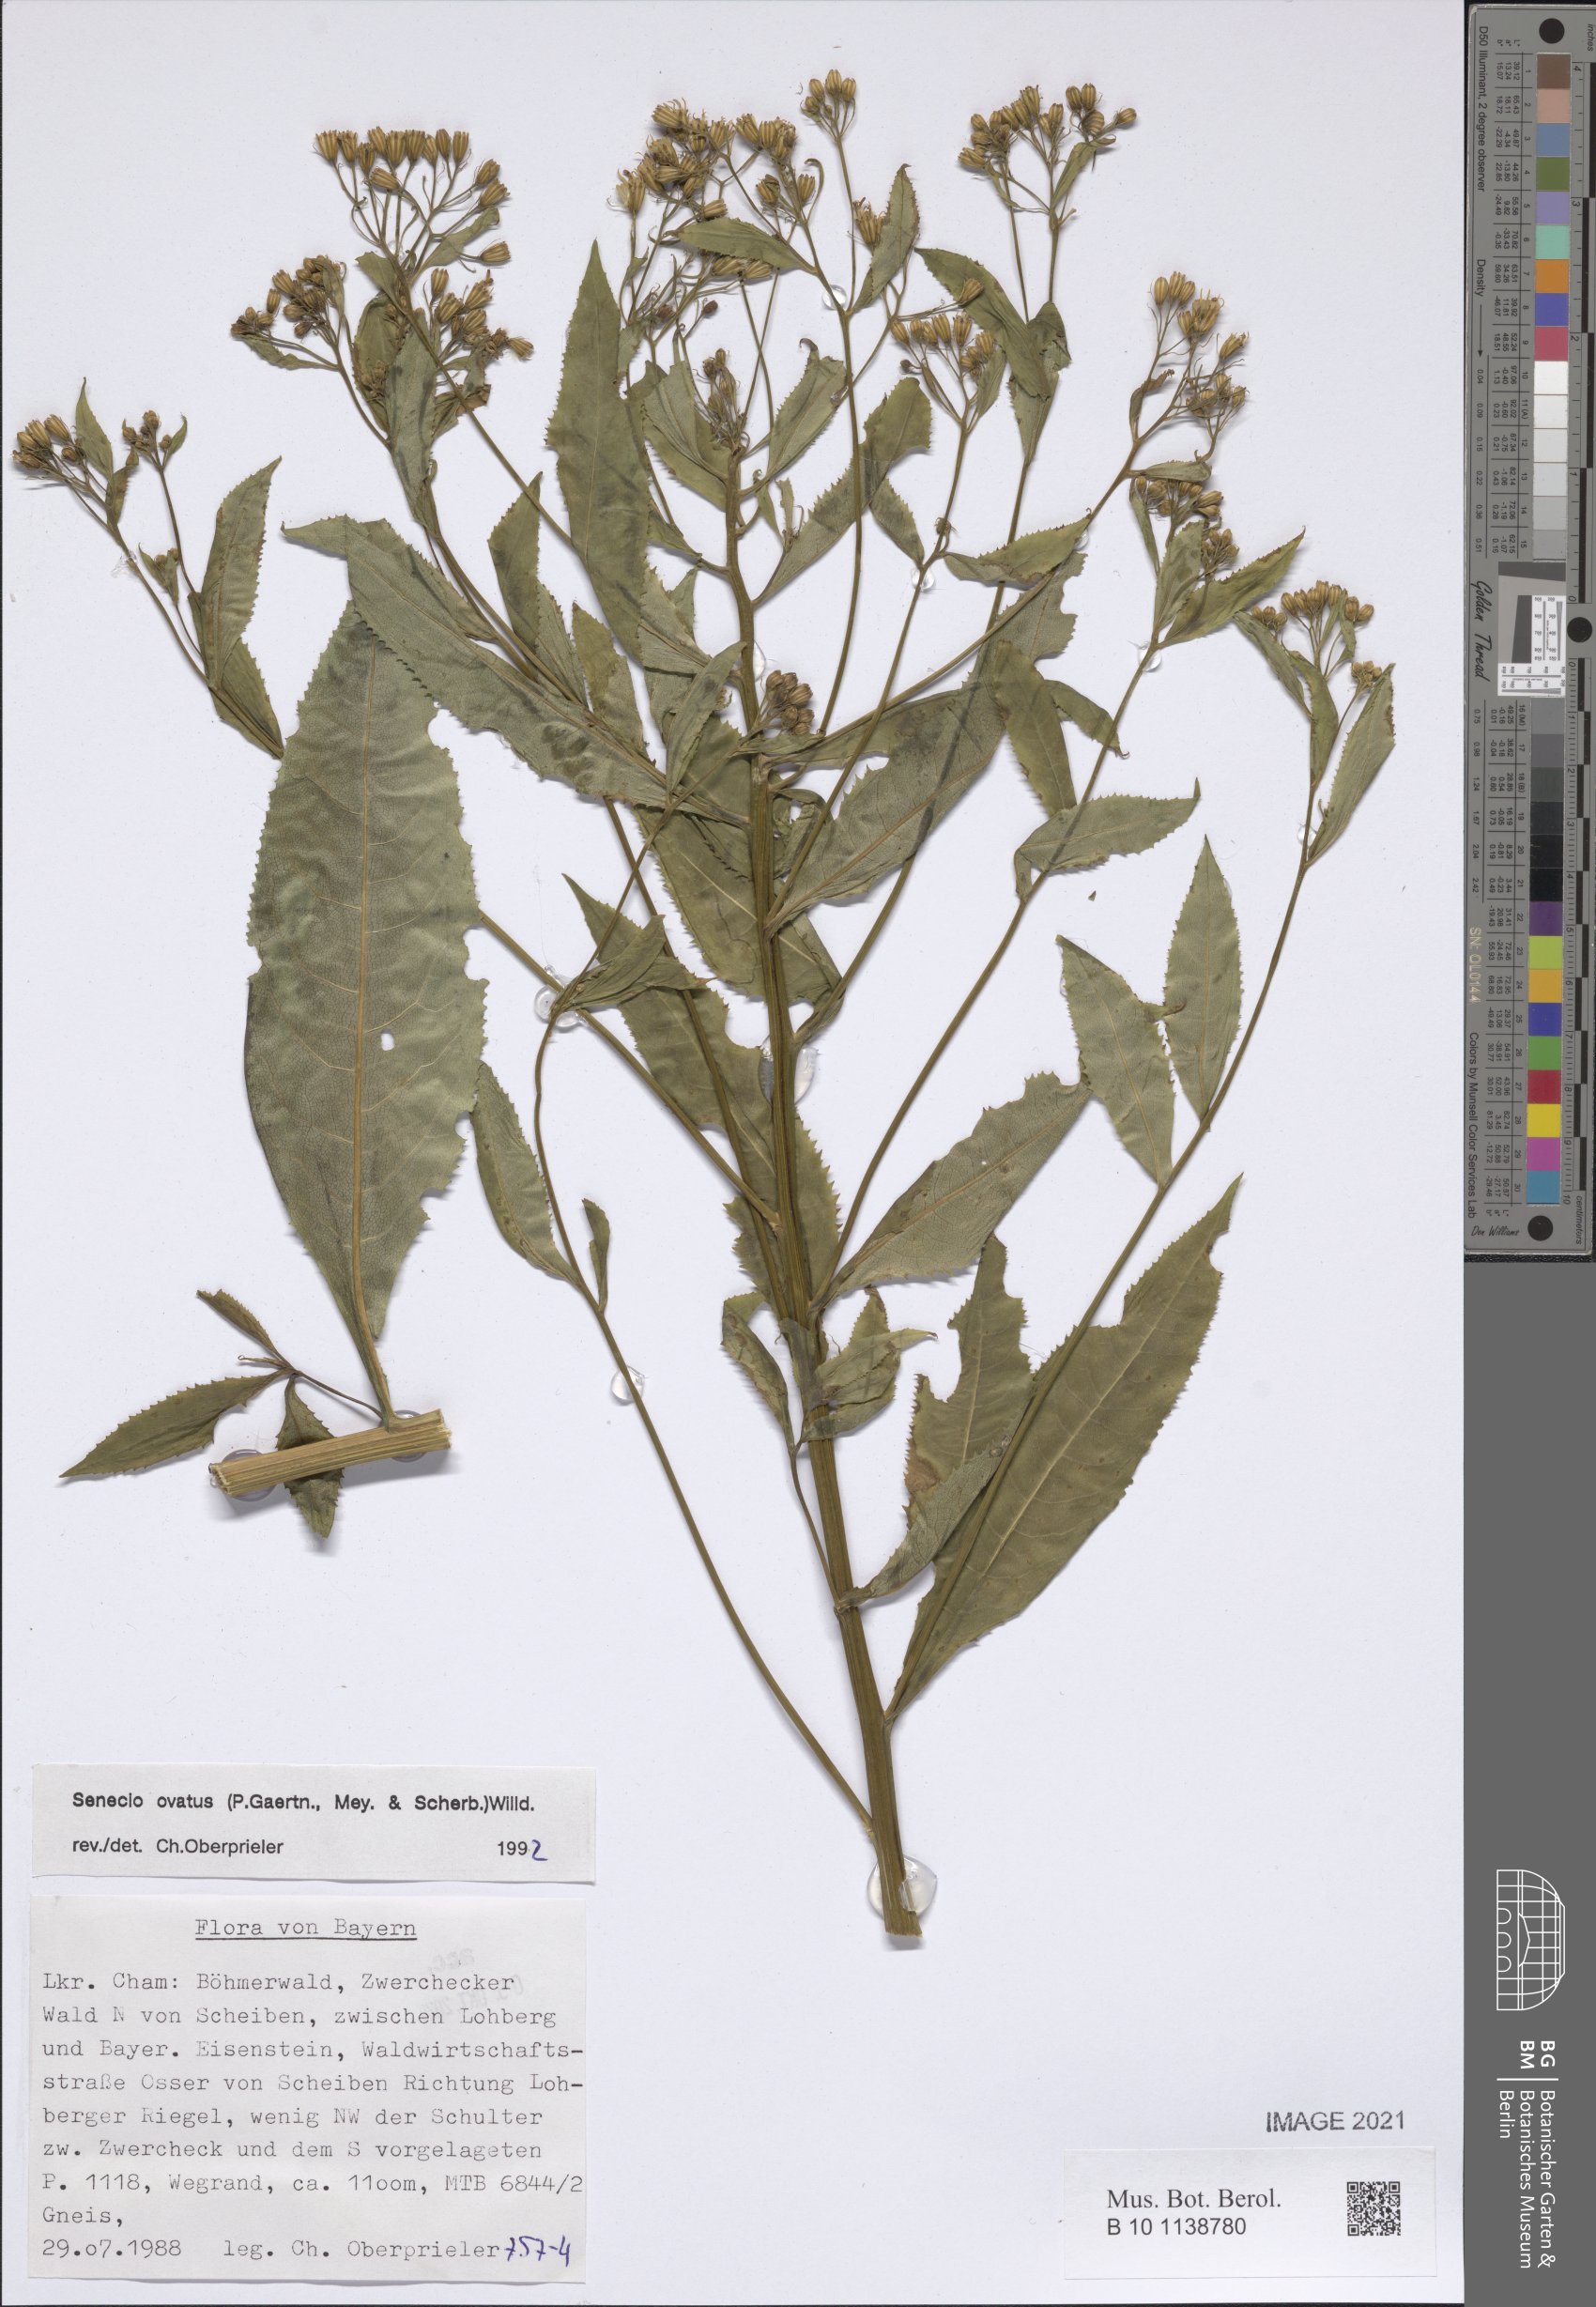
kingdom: Plantae
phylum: Tracheophyta
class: Magnoliopsida
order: Asterales
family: Asteraceae
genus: Senecio
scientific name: Senecio ovatus
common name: Wood ragwort
